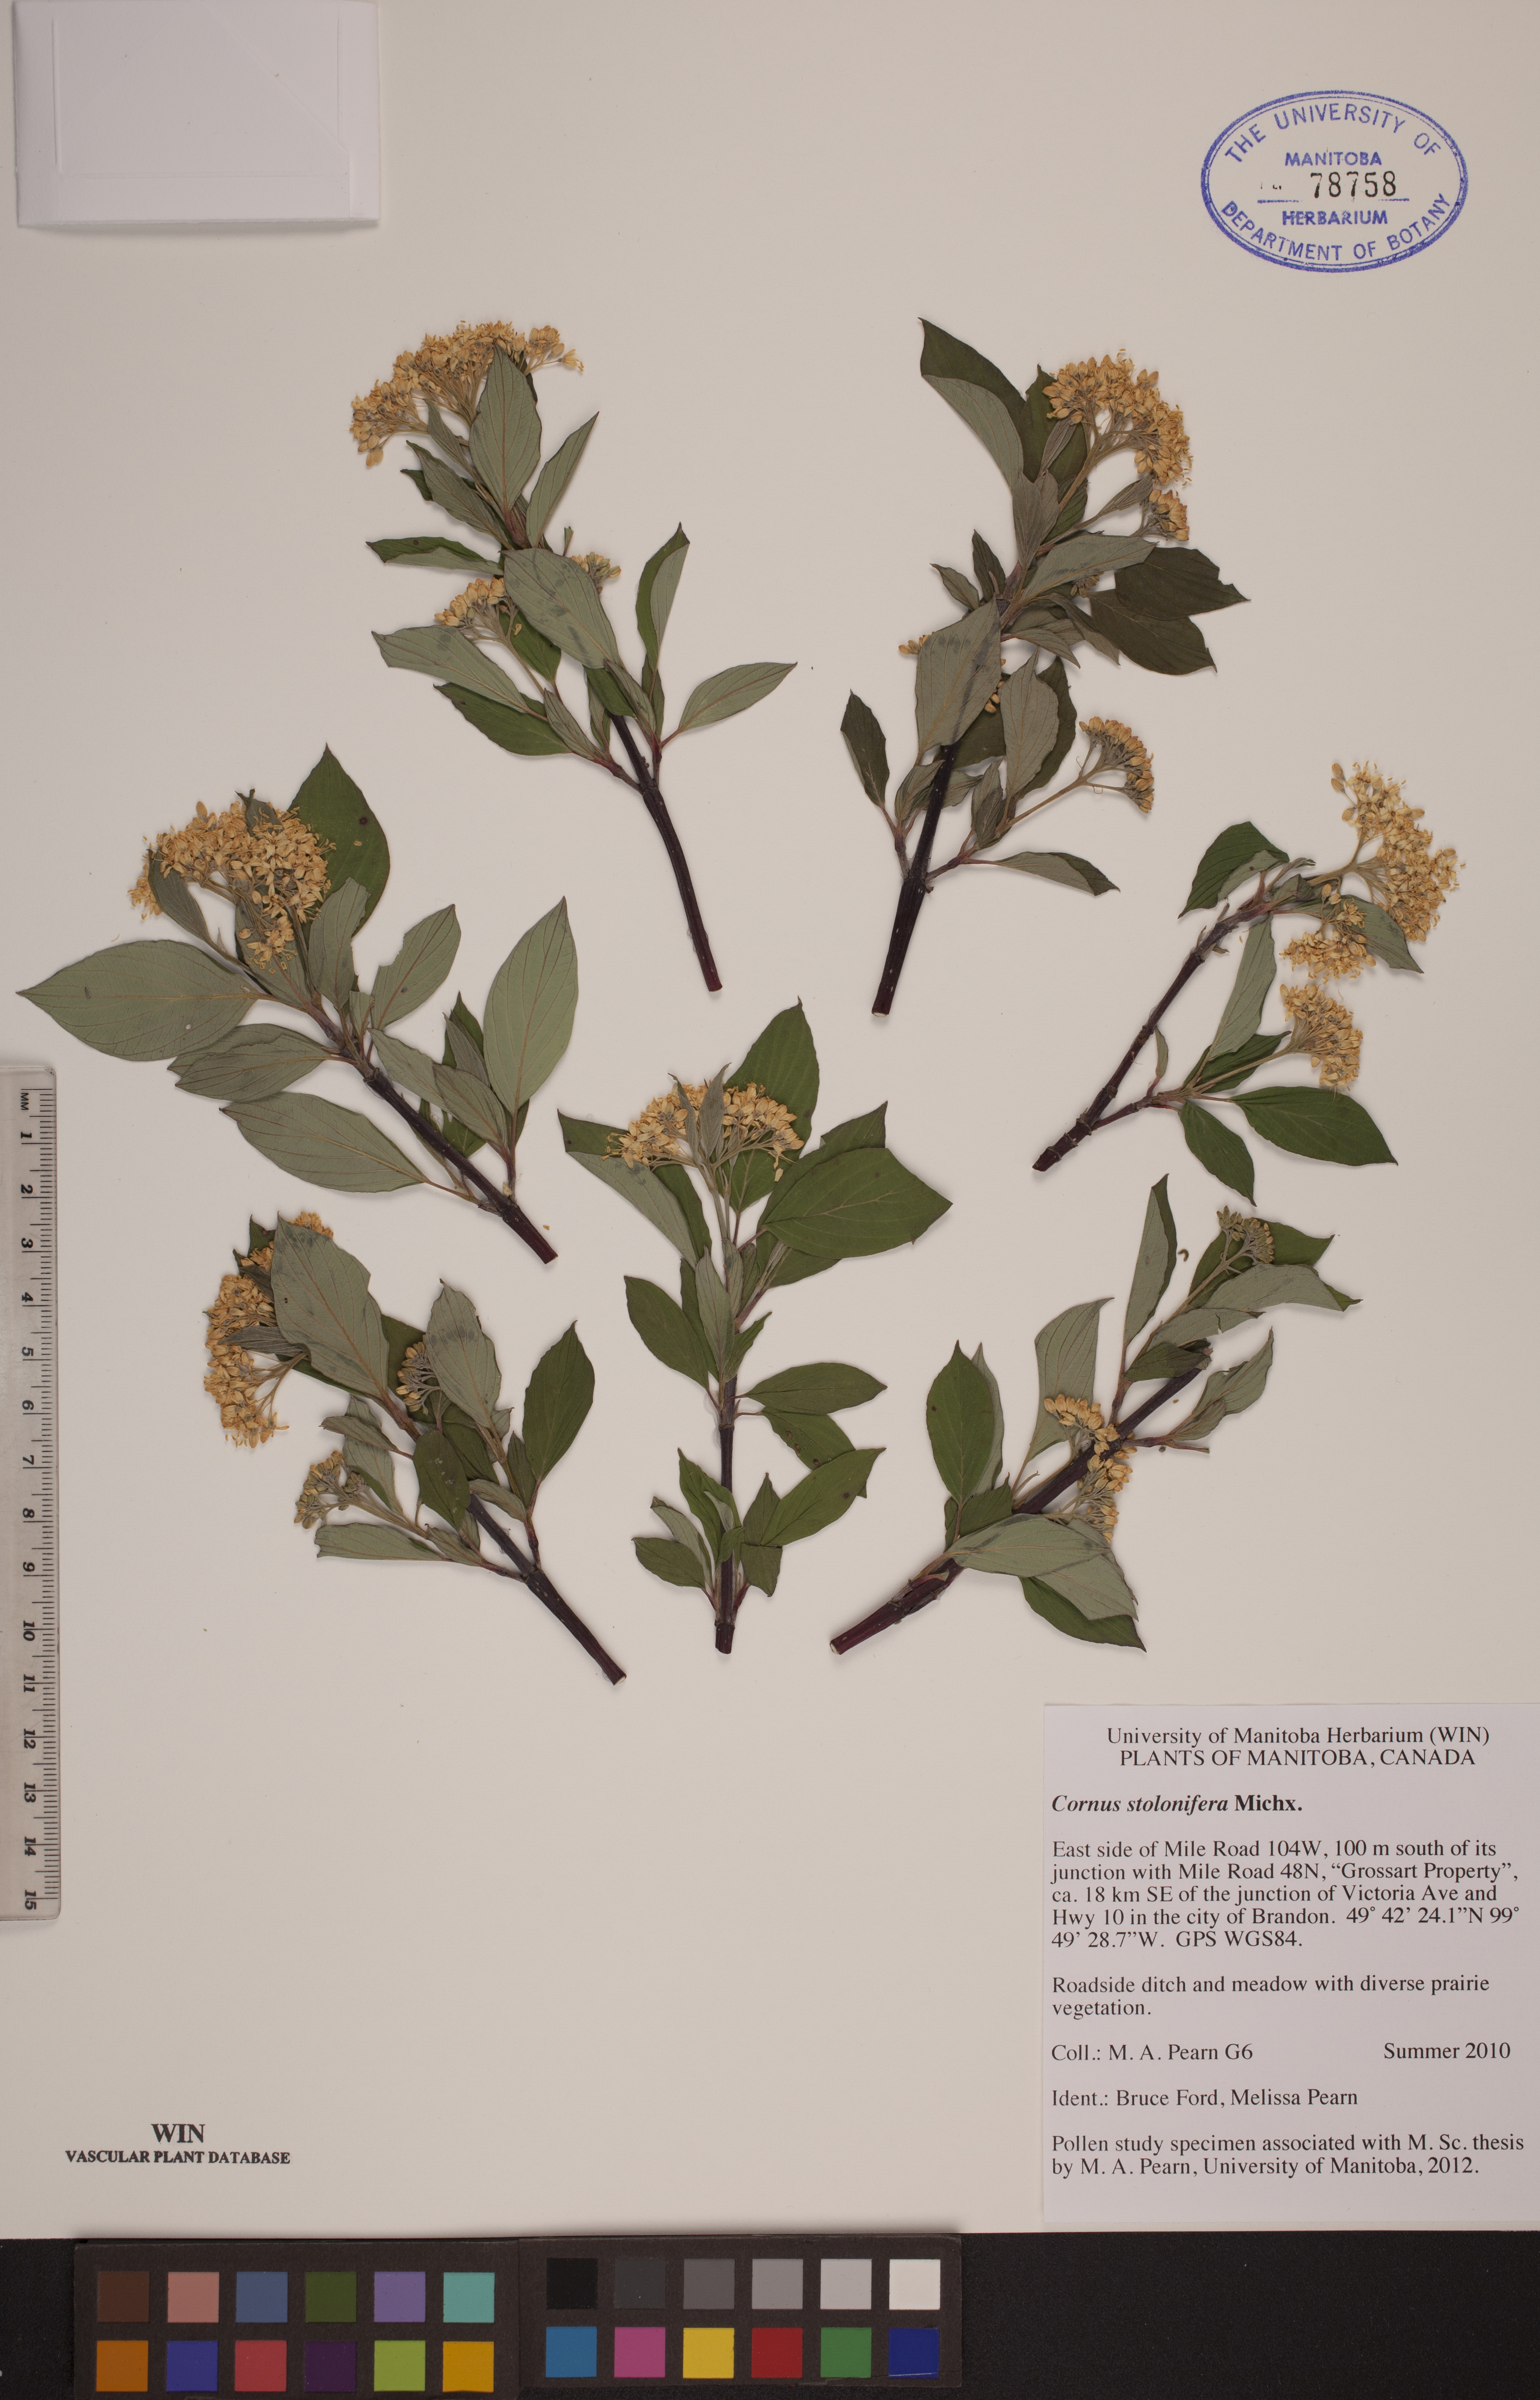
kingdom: Plantae
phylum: Tracheophyta
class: Magnoliopsida
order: Cornales
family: Cornaceae
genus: Cornus
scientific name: Cornus sericea
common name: Red-osier dogwood
